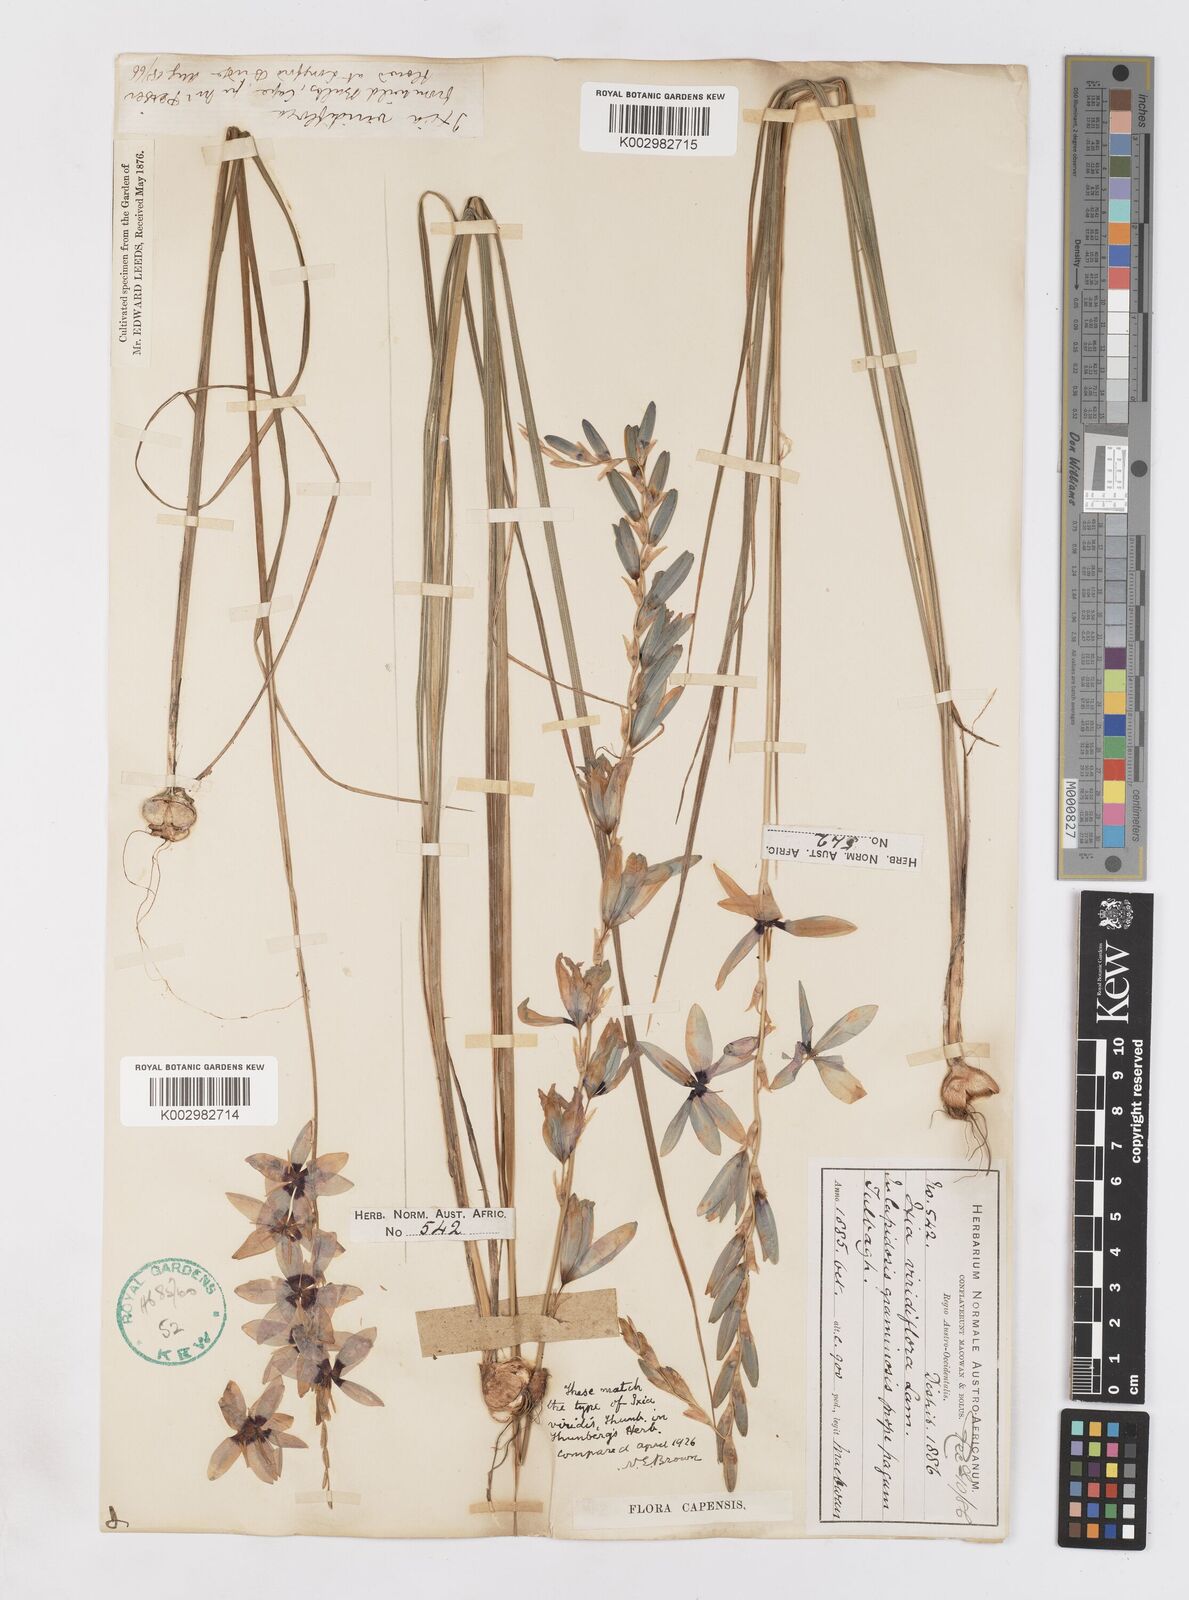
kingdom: Plantae
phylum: Tracheophyta
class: Liliopsida
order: Asparagales
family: Iridaceae
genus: Ixia
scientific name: Ixia viridiflora
